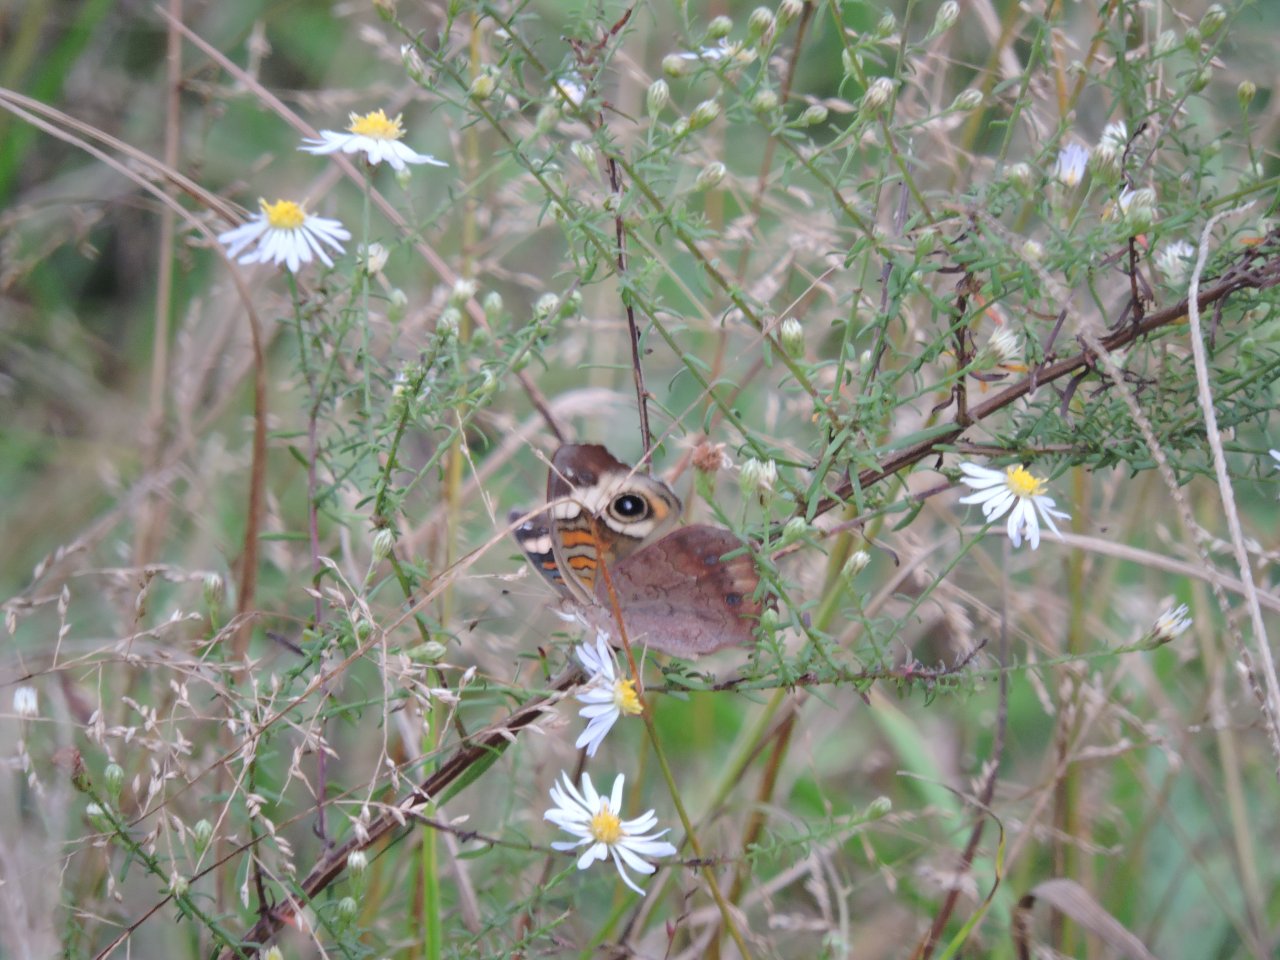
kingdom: Animalia
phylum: Arthropoda
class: Insecta
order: Lepidoptera
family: Nymphalidae
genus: Junonia
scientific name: Junonia coenia
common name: Common Buckeye
